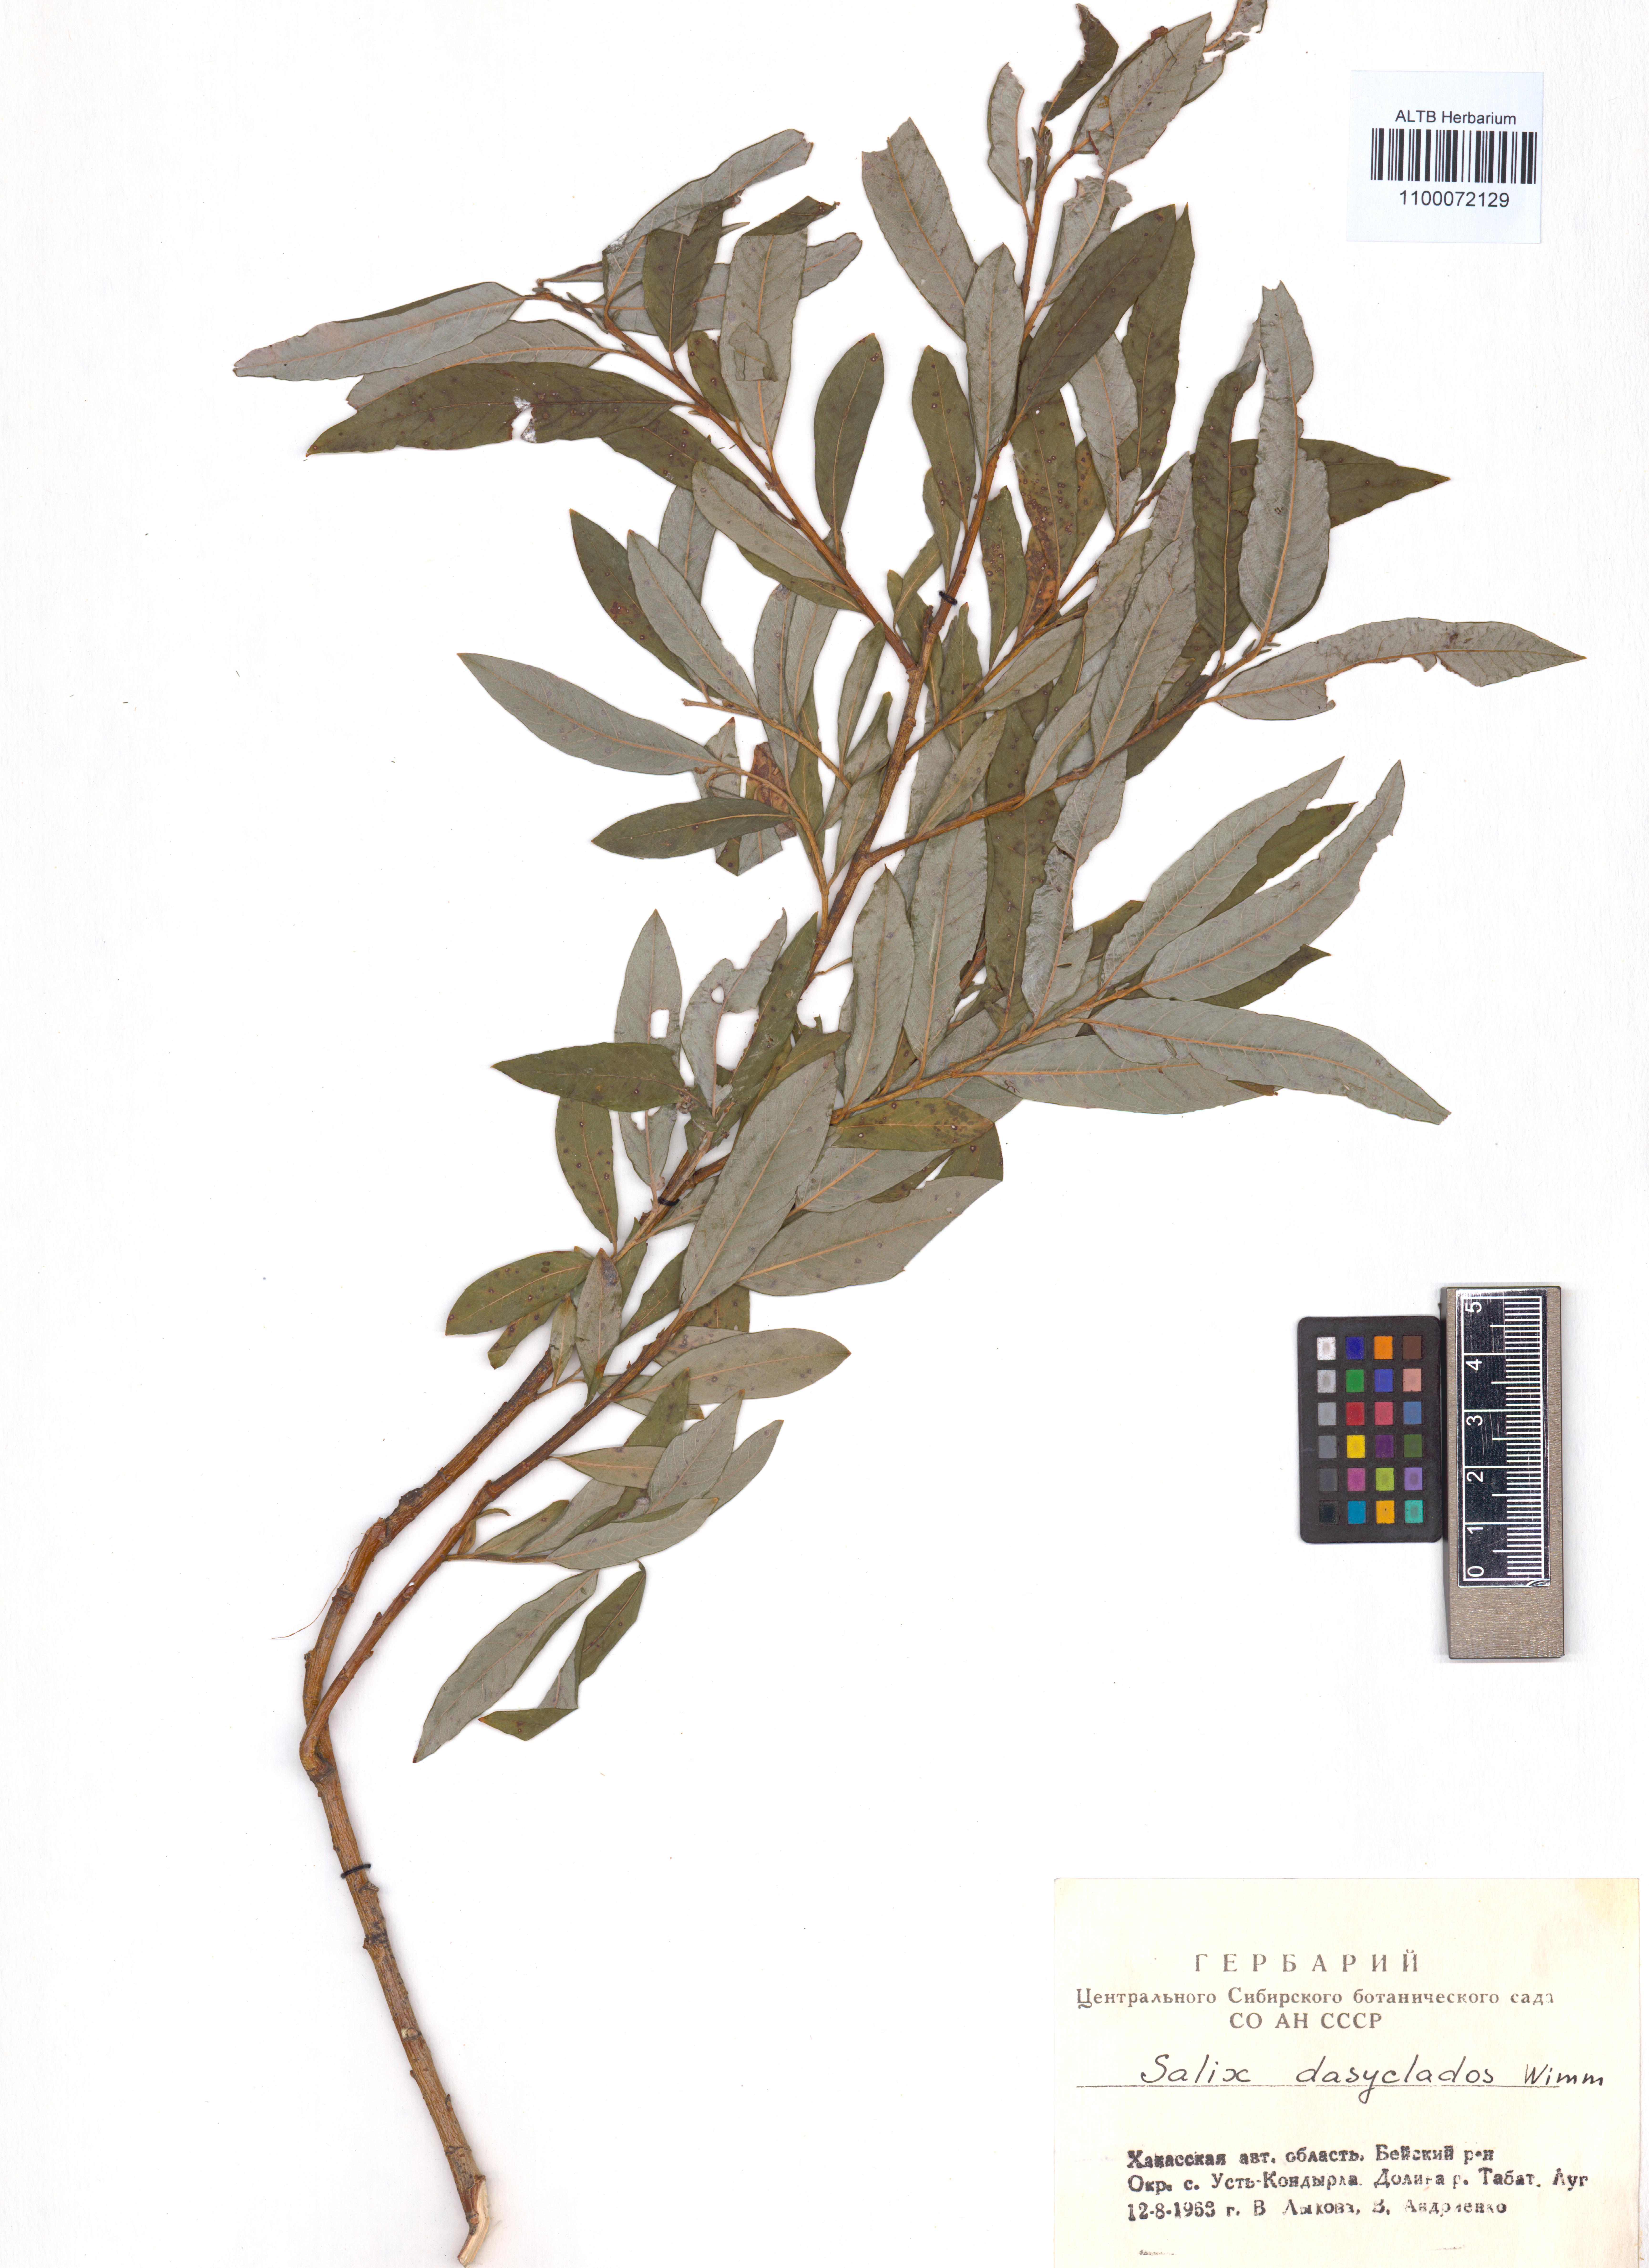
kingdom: Plantae
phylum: Tracheophyta
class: Magnoliopsida
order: Malpighiales
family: Salicaceae
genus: Salix
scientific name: Salix gmelinii
